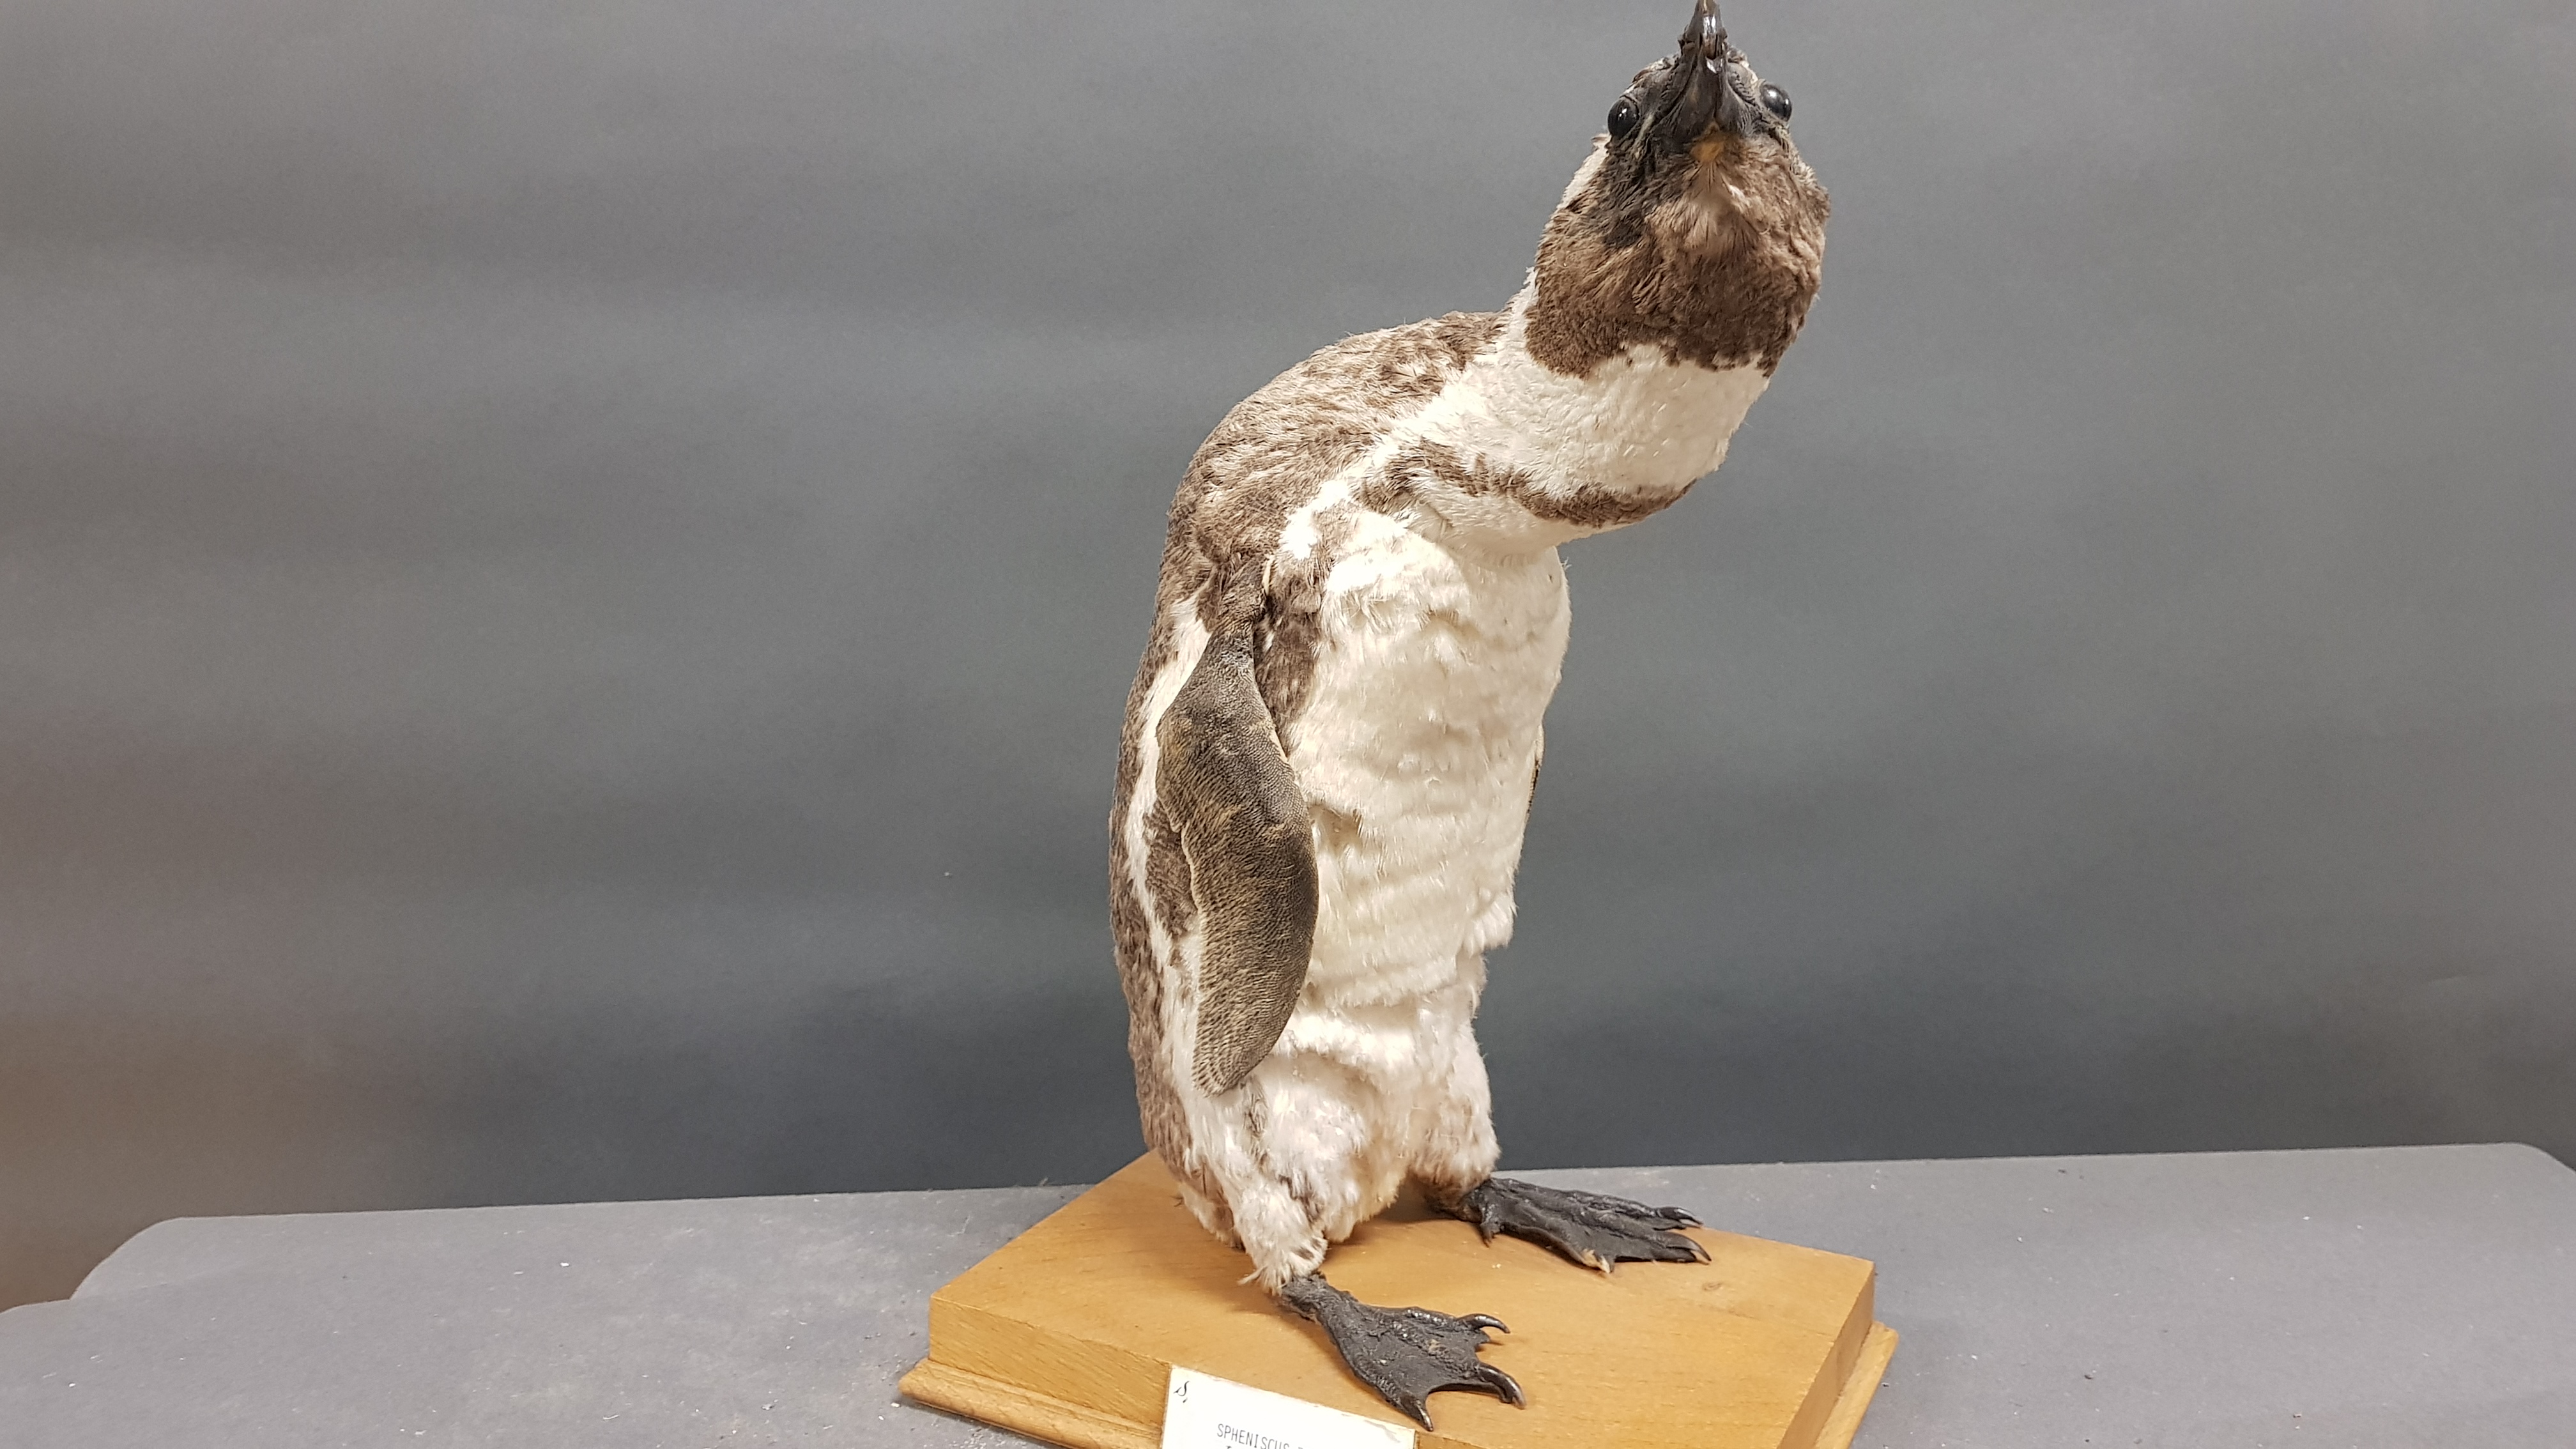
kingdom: Animalia
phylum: Chordata
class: Aves
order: Sphenisciformes
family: Spheniscidae
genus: Spheniscus
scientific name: Spheniscus demersus
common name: African penguin
